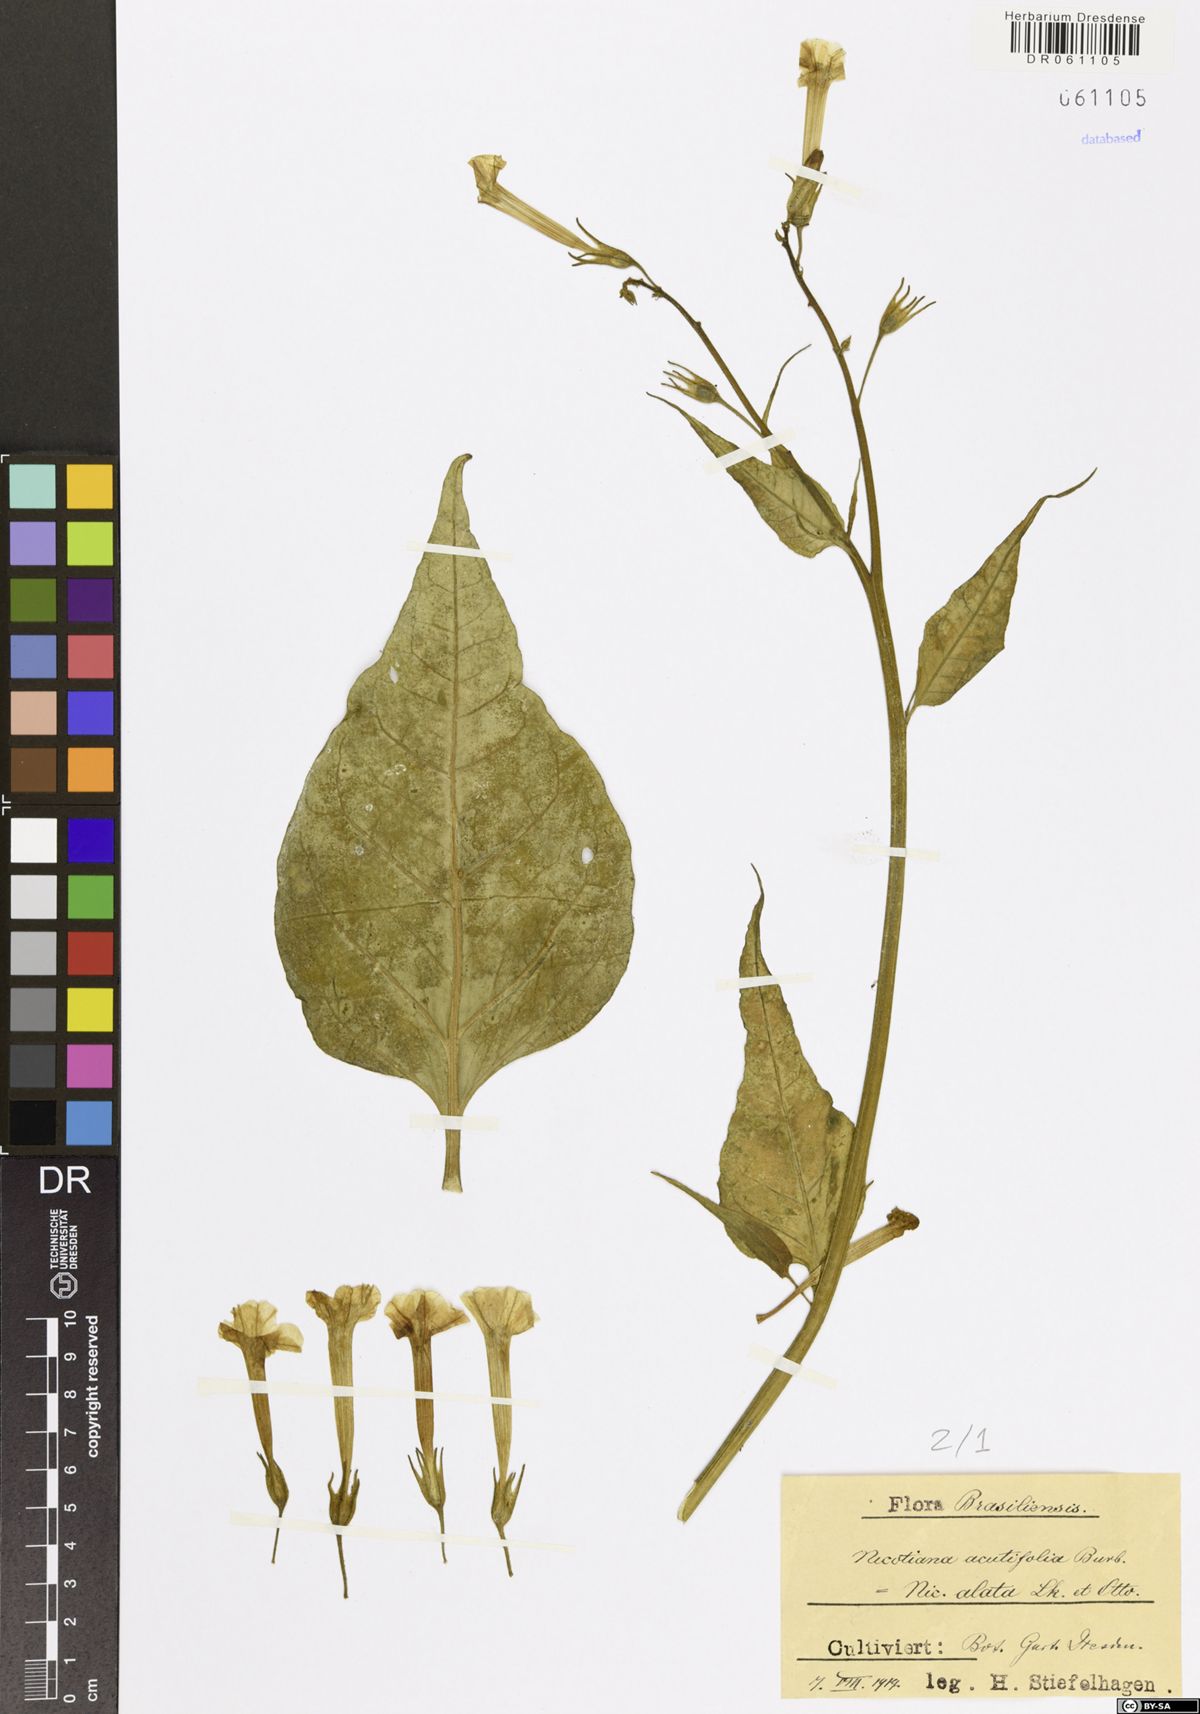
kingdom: Plantae
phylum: Tracheophyta
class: Magnoliopsida
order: Solanales
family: Solanaceae
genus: Nicotiana
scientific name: Nicotiana alata
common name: Jasmine tobacco
